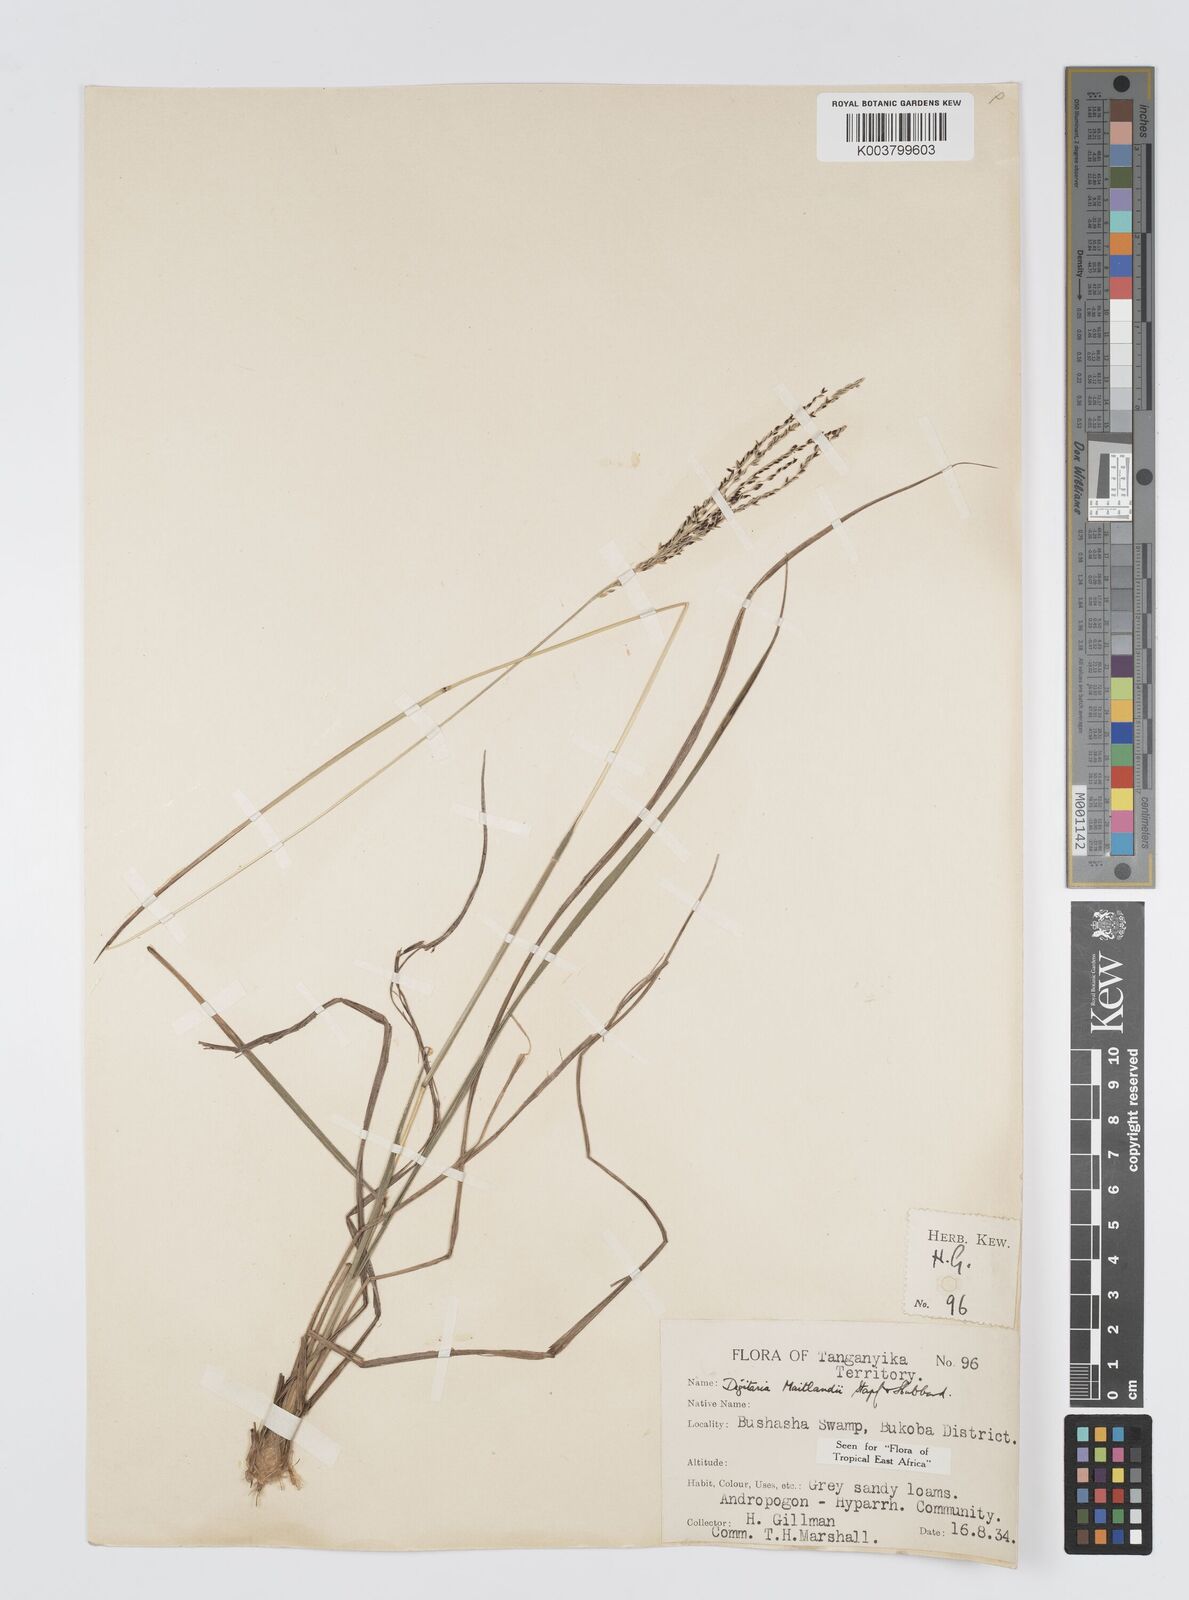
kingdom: Plantae
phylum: Tracheophyta
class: Liliopsida
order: Poales
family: Poaceae
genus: Digitaria
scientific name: Digitaria maitlandii
